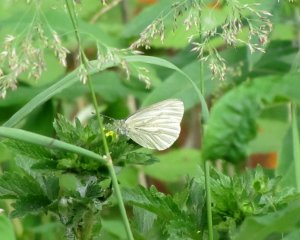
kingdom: Animalia
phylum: Arthropoda
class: Insecta
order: Lepidoptera
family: Pieridae
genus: Pieris
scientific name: Pieris
